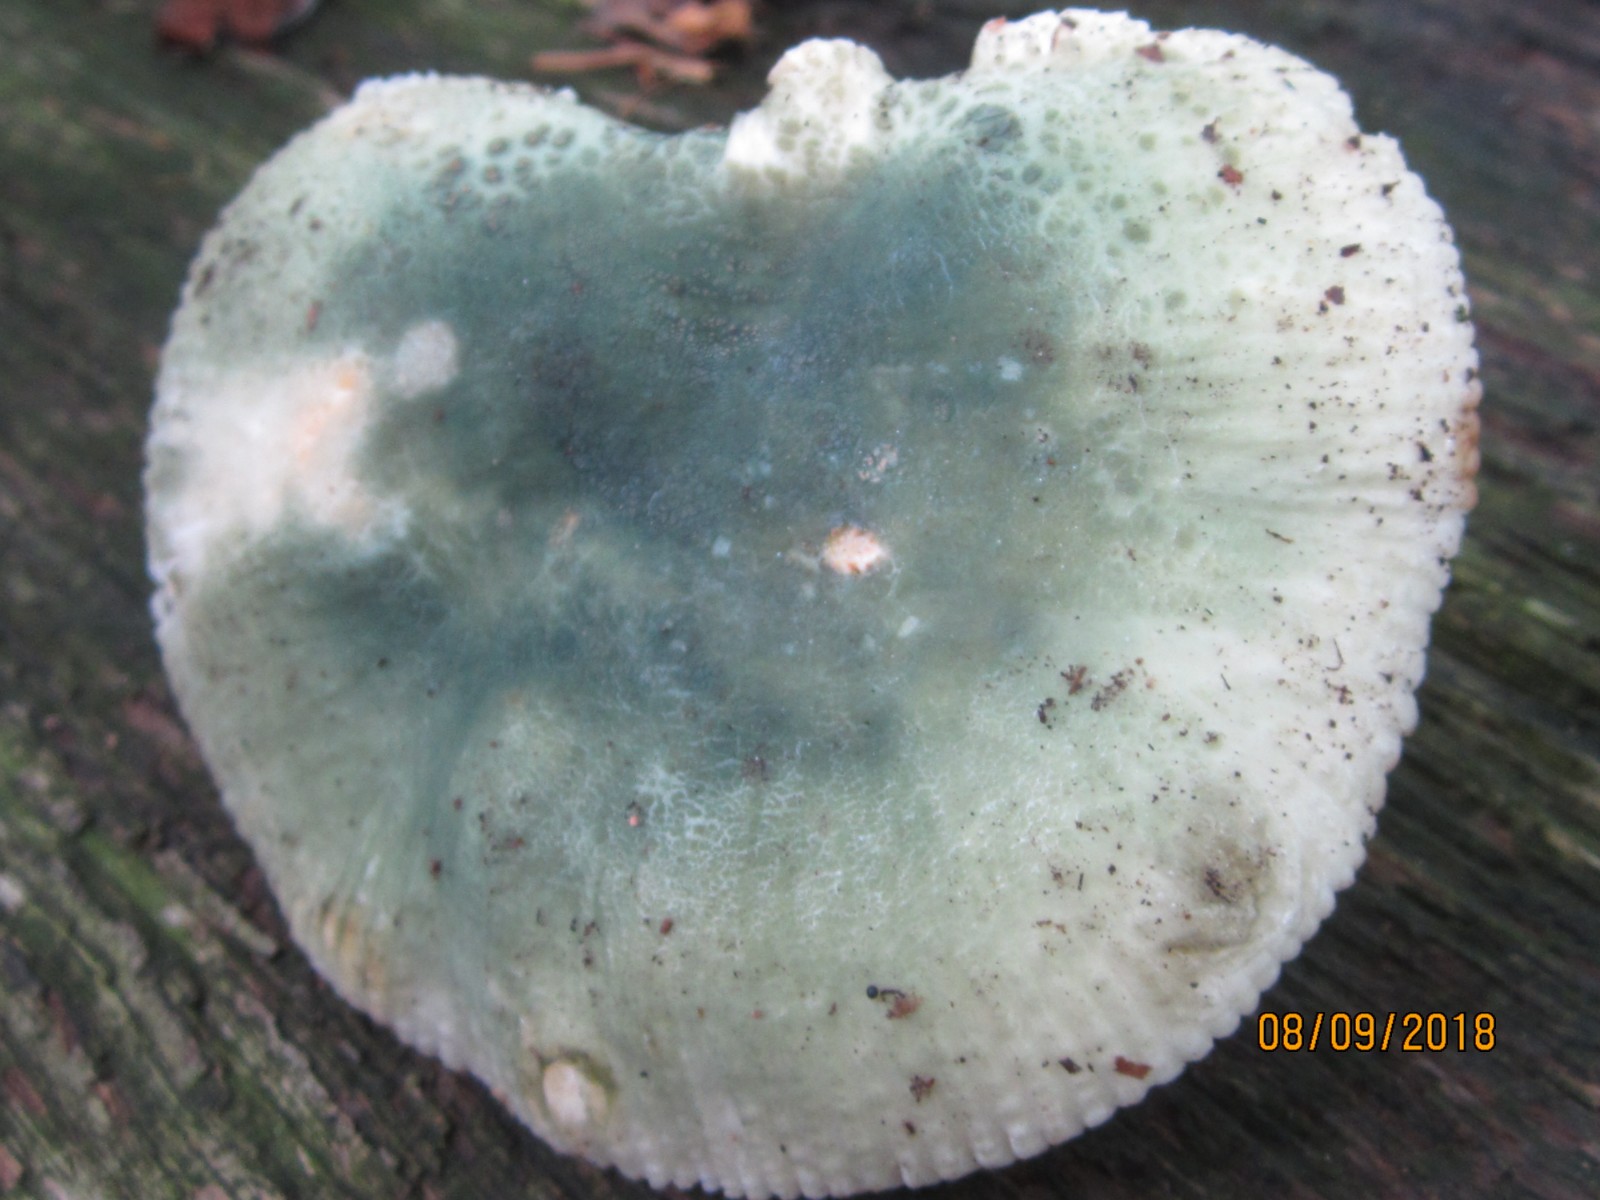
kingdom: Fungi
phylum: Basidiomycota
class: Agaricomycetes
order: Russulales
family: Russulaceae
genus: Russula
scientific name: Russula virescens
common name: spanskgrøn skørhat
